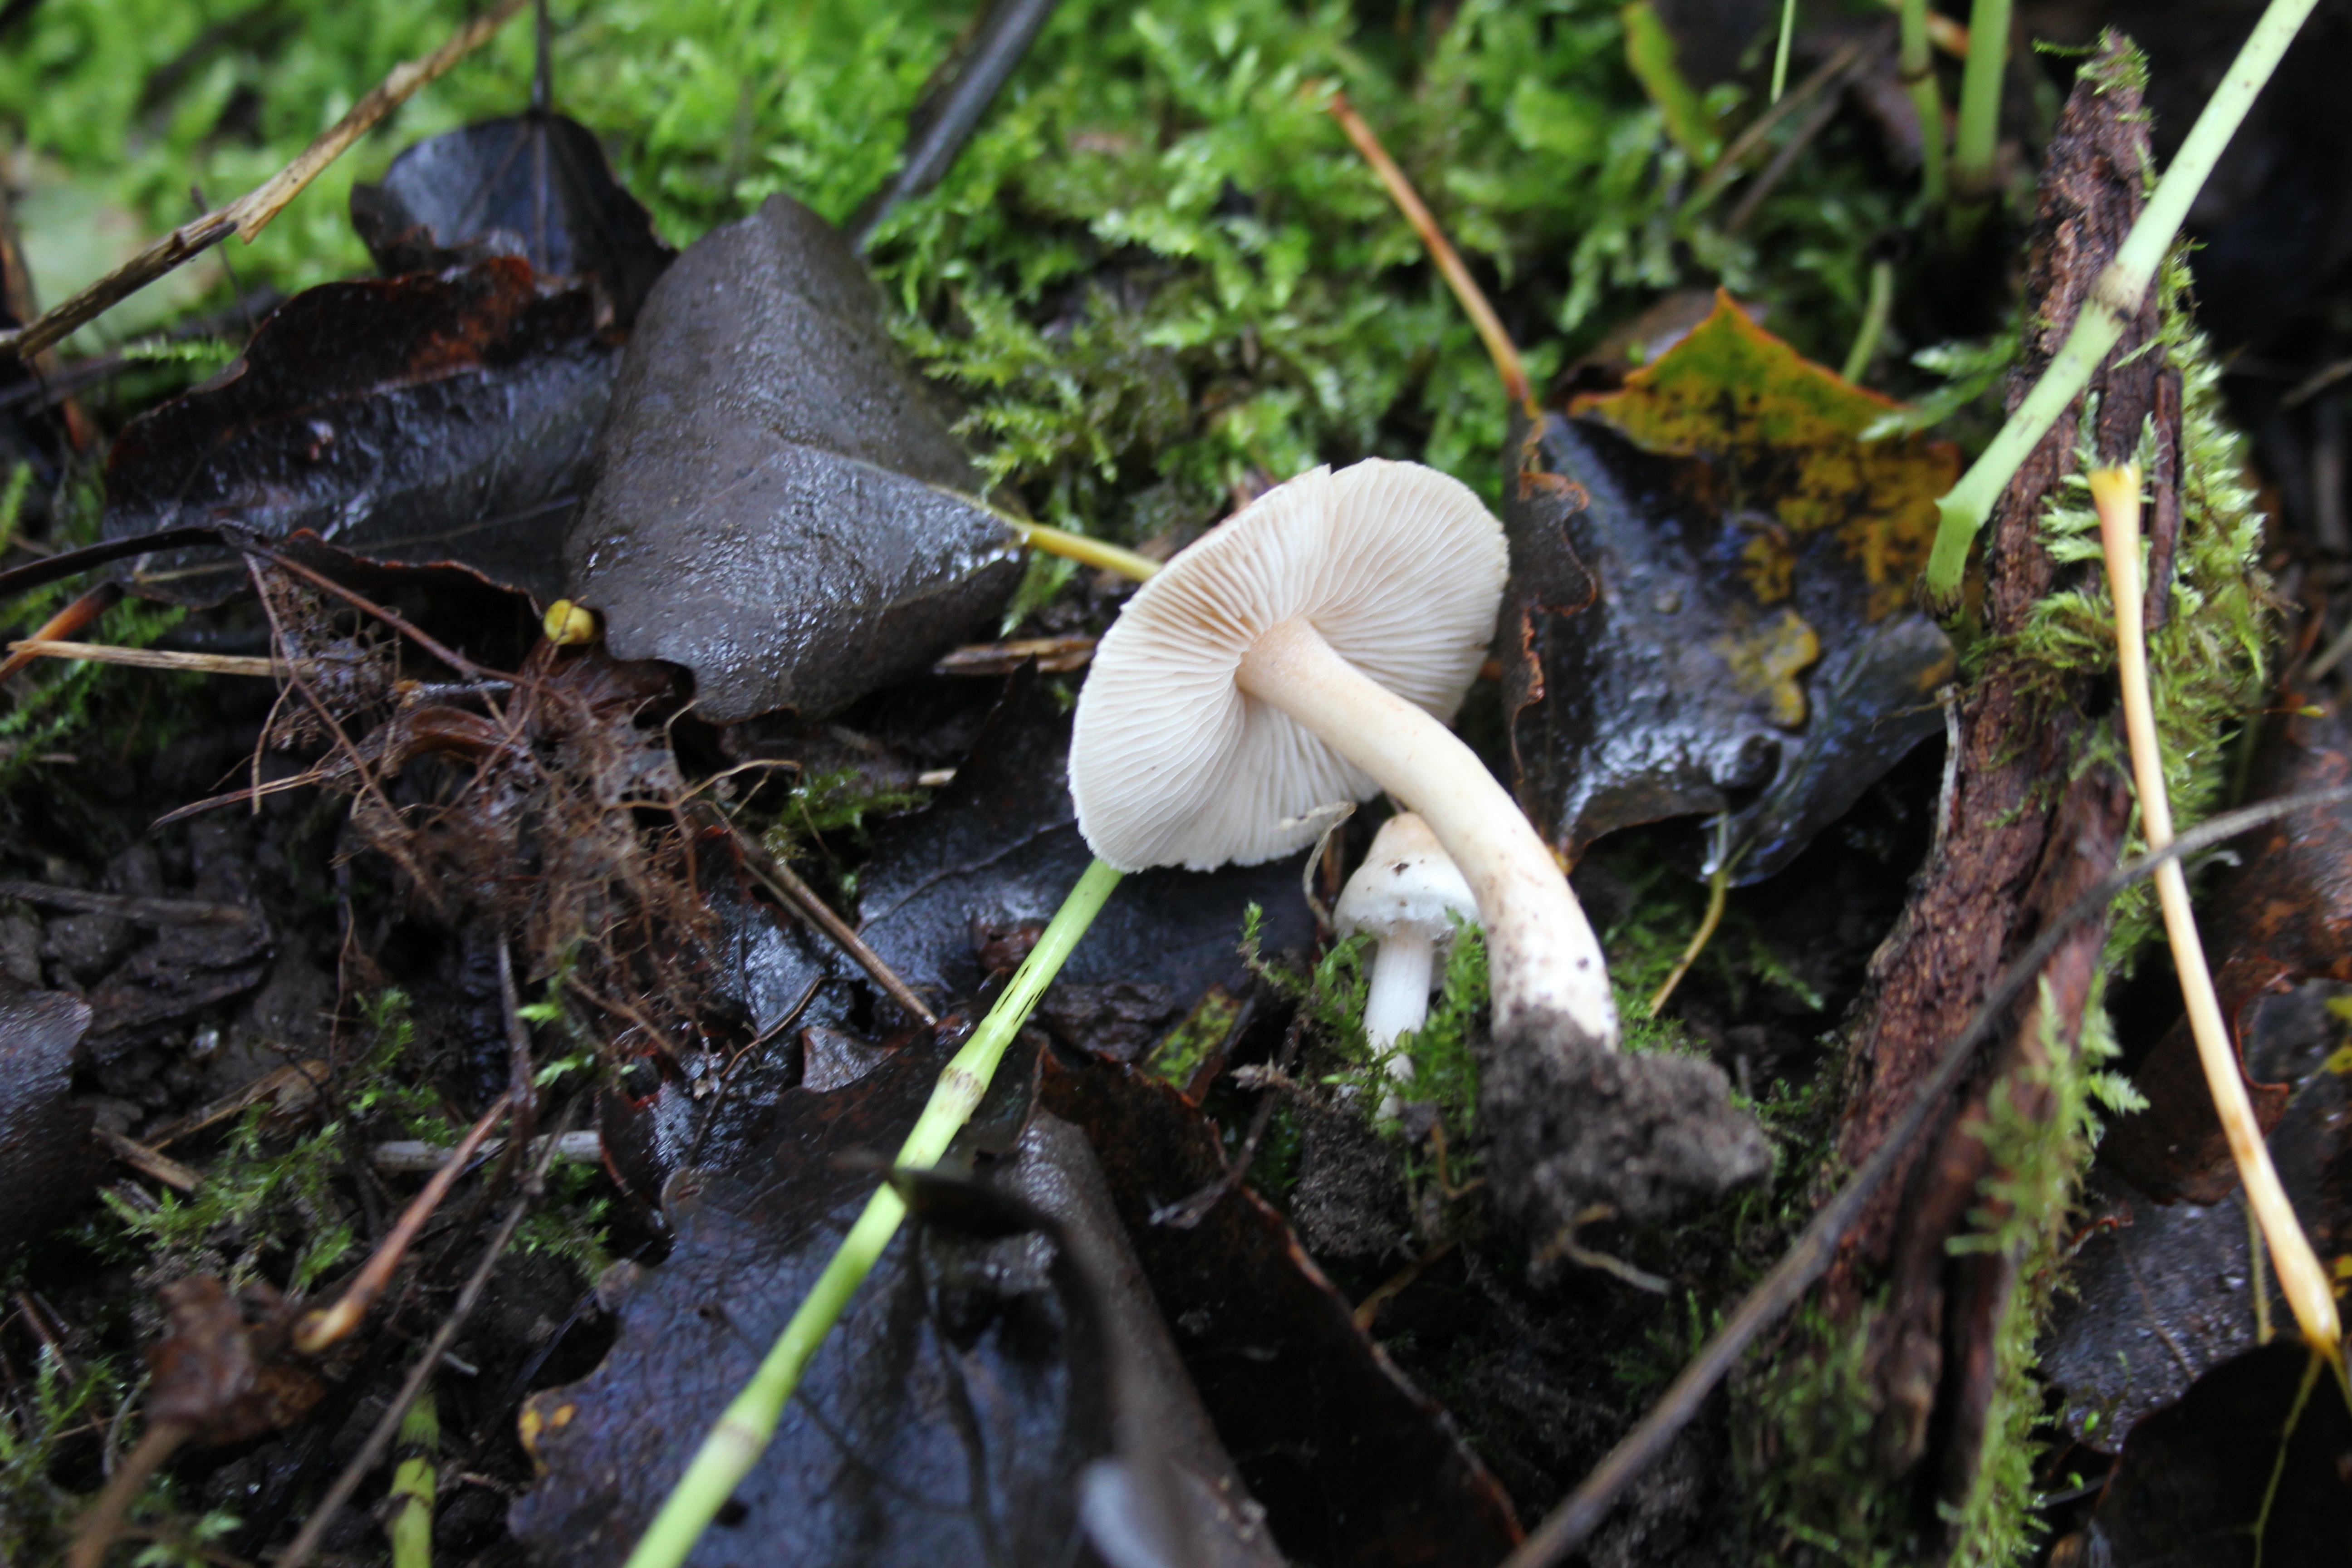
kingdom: Fungi
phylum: Basidiomycota
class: Agaricomycetes
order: Agaricales
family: Inocybaceae
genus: Inocybe
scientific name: Inocybe sindonia
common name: Beige fibrecap
